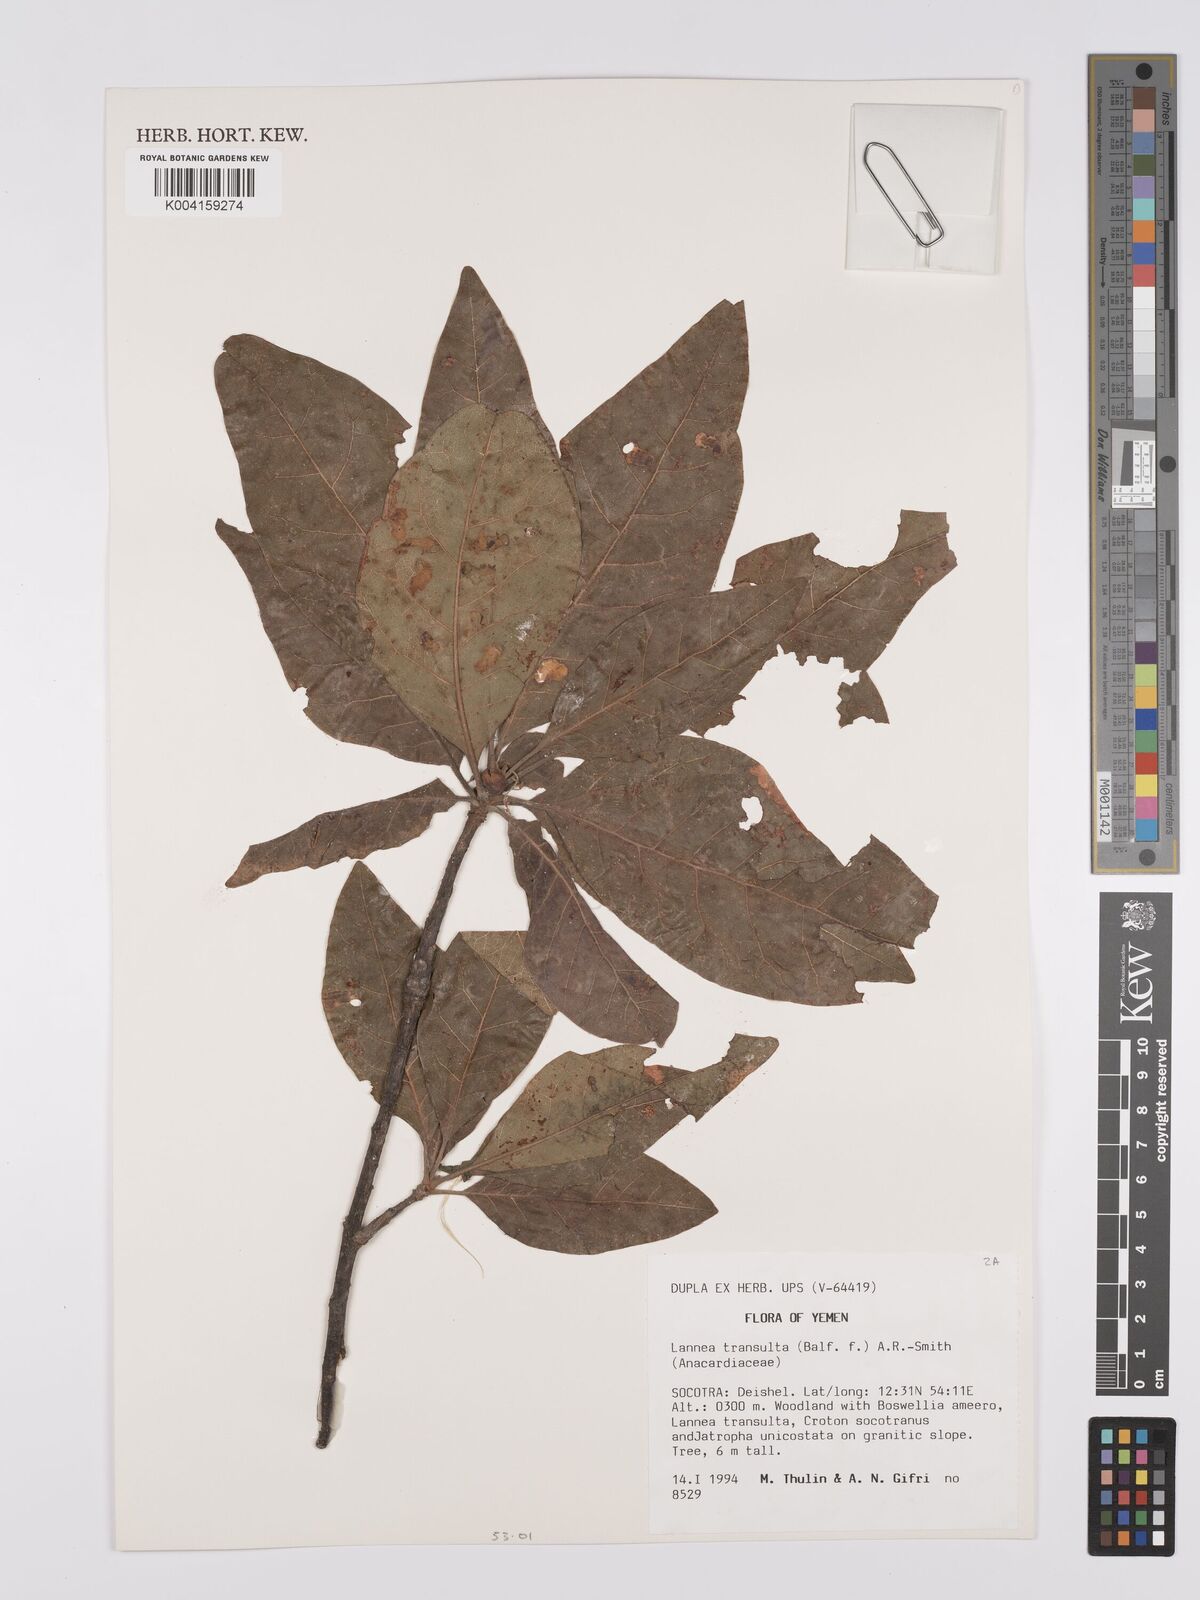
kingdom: Plantae
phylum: Tracheophyta
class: Magnoliopsida
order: Sapindales
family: Anacardiaceae
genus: Lannea
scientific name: Lannea transulta
